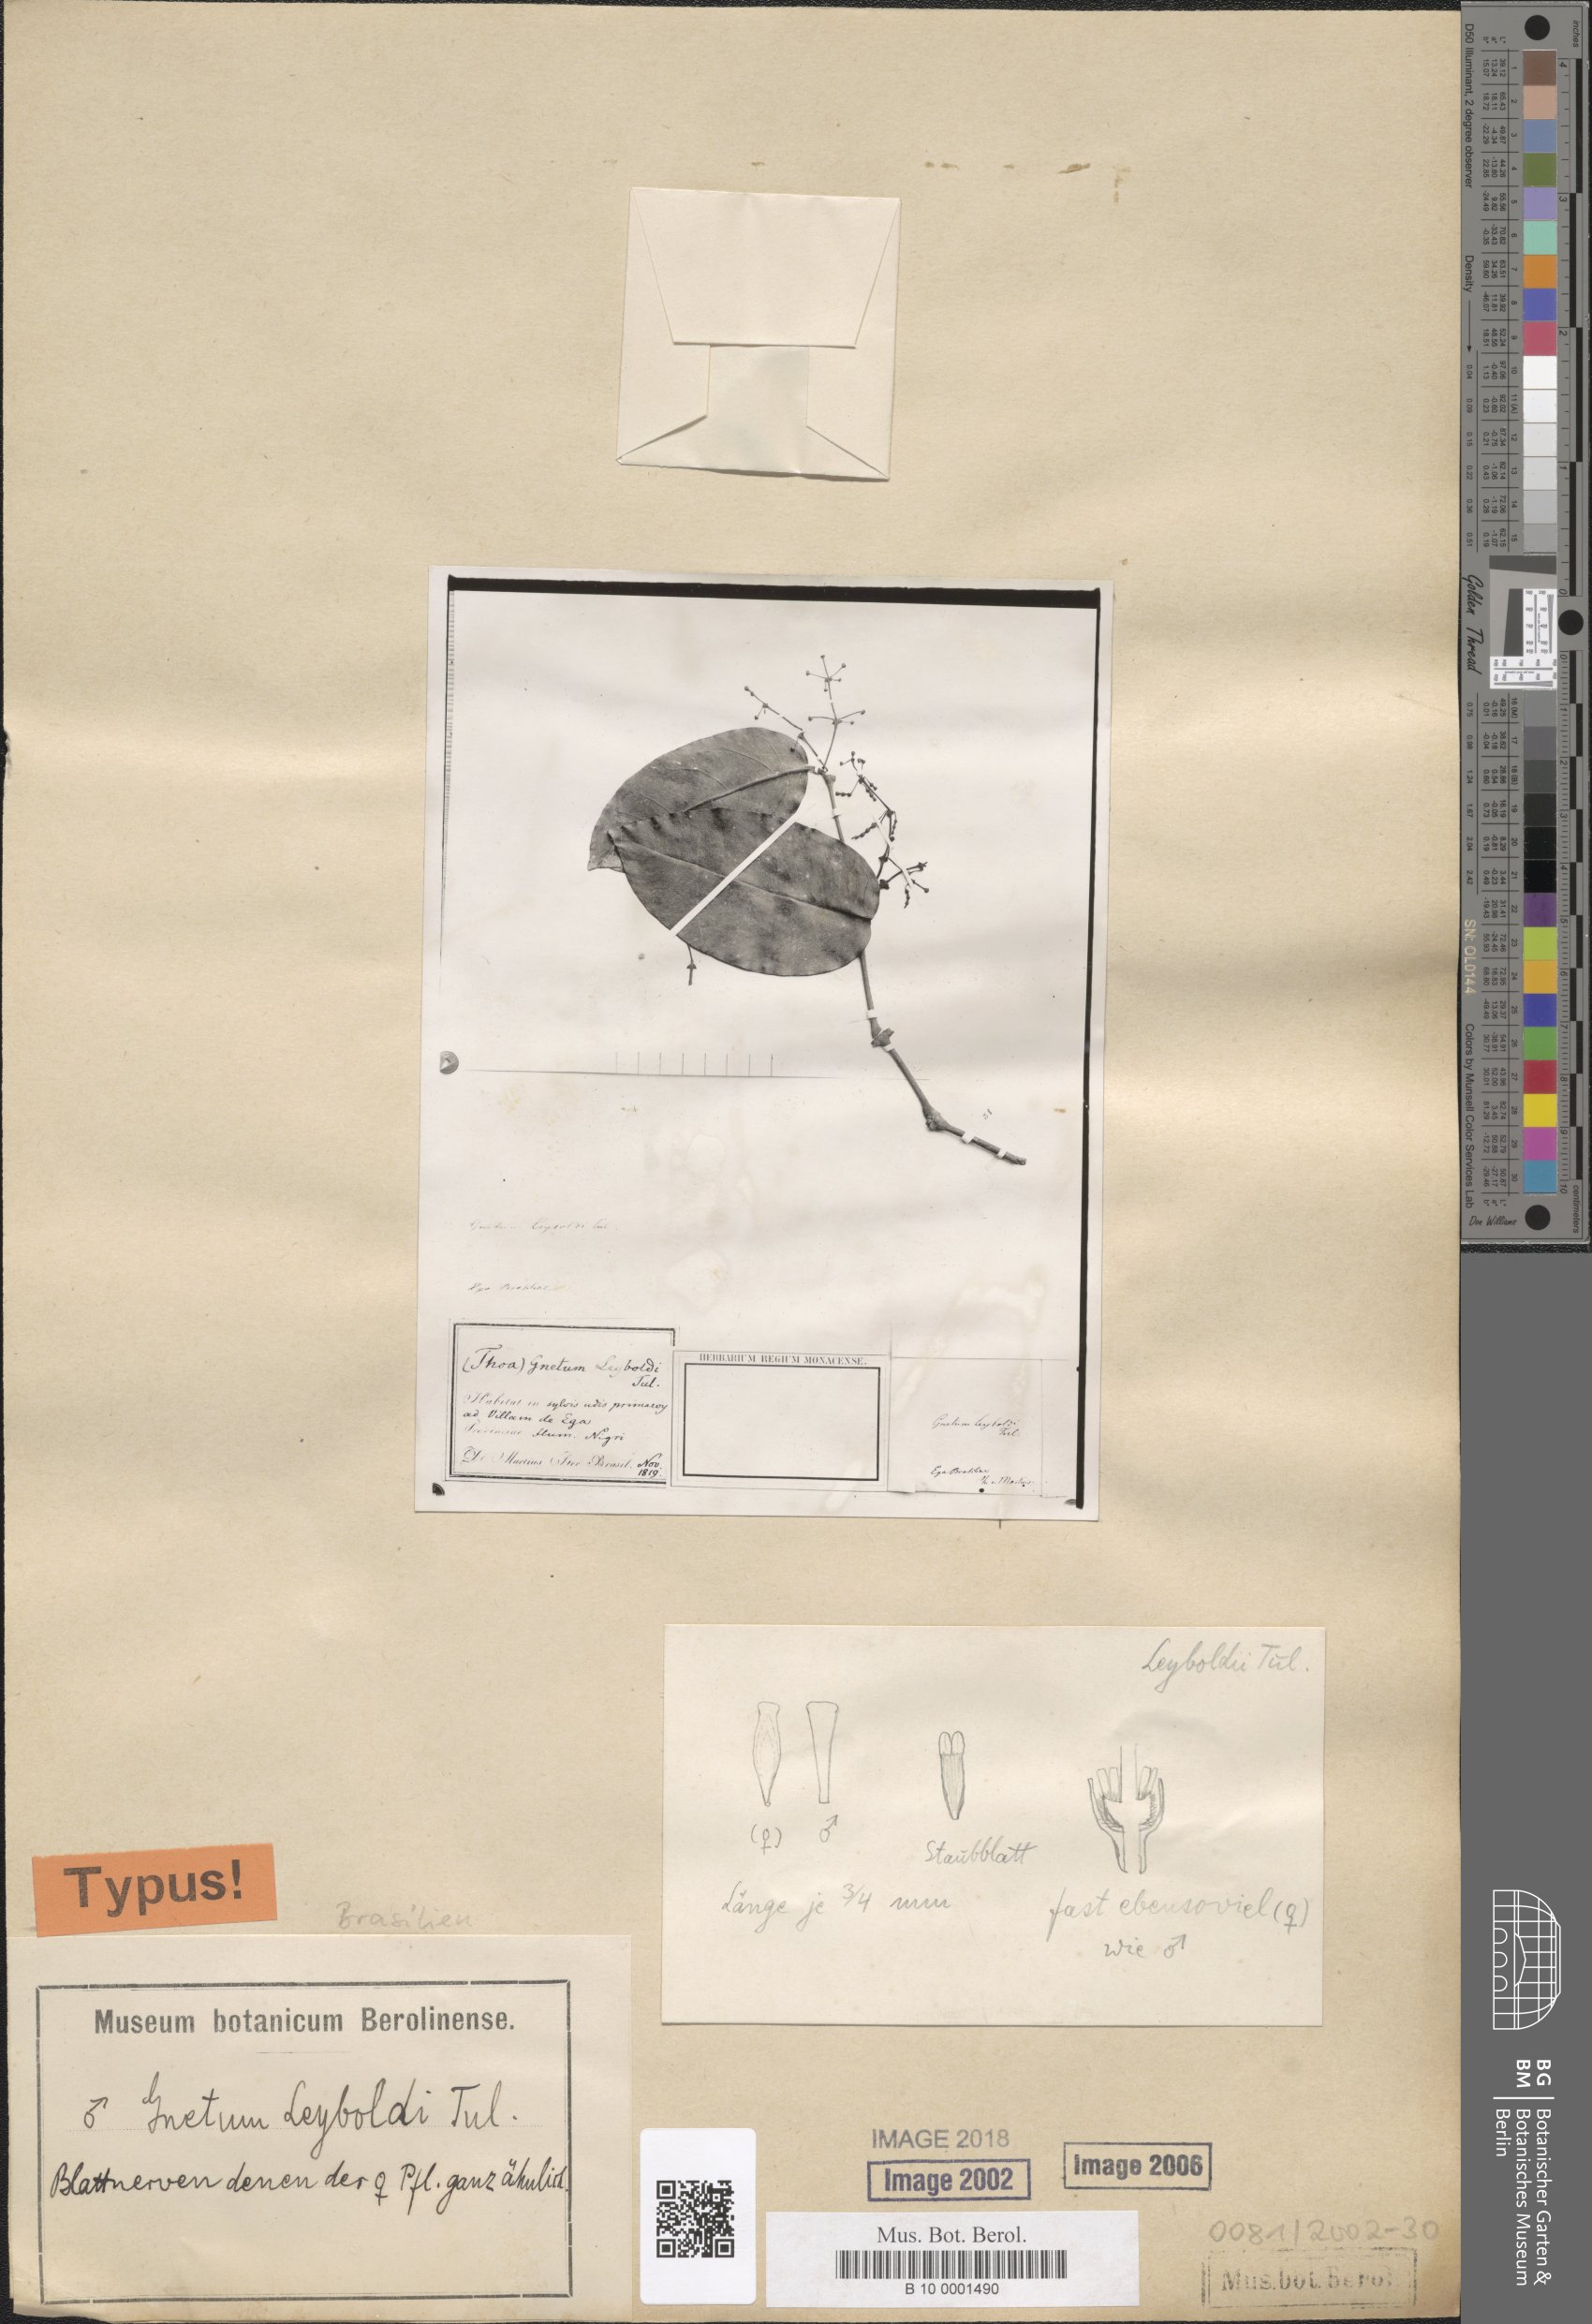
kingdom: Plantae
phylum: Tracheophyta
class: Gnetopsida
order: Gnetales
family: Gnetaceae
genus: Gnetum
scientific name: Gnetum leyboldii
